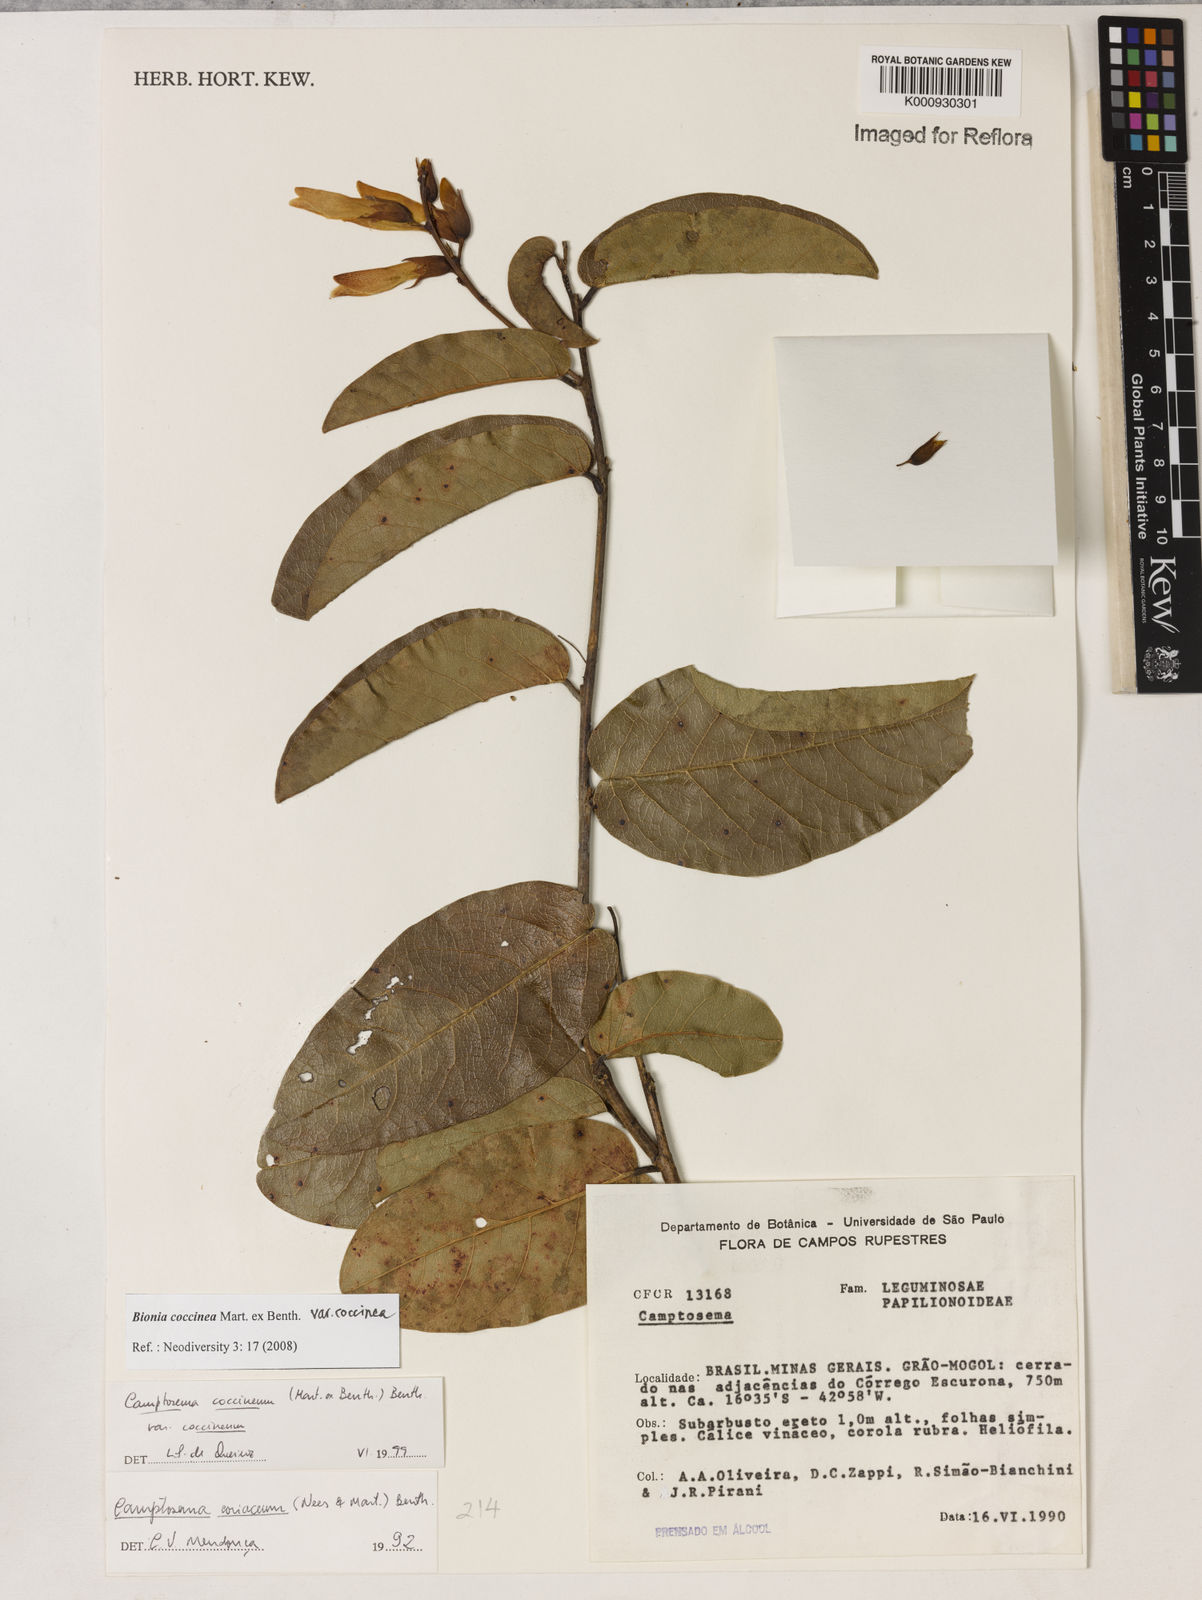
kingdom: Plantae
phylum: Tracheophyta
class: Magnoliopsida
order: Fabales
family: Fabaceae
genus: Camptosema
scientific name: Camptosema coccineum
